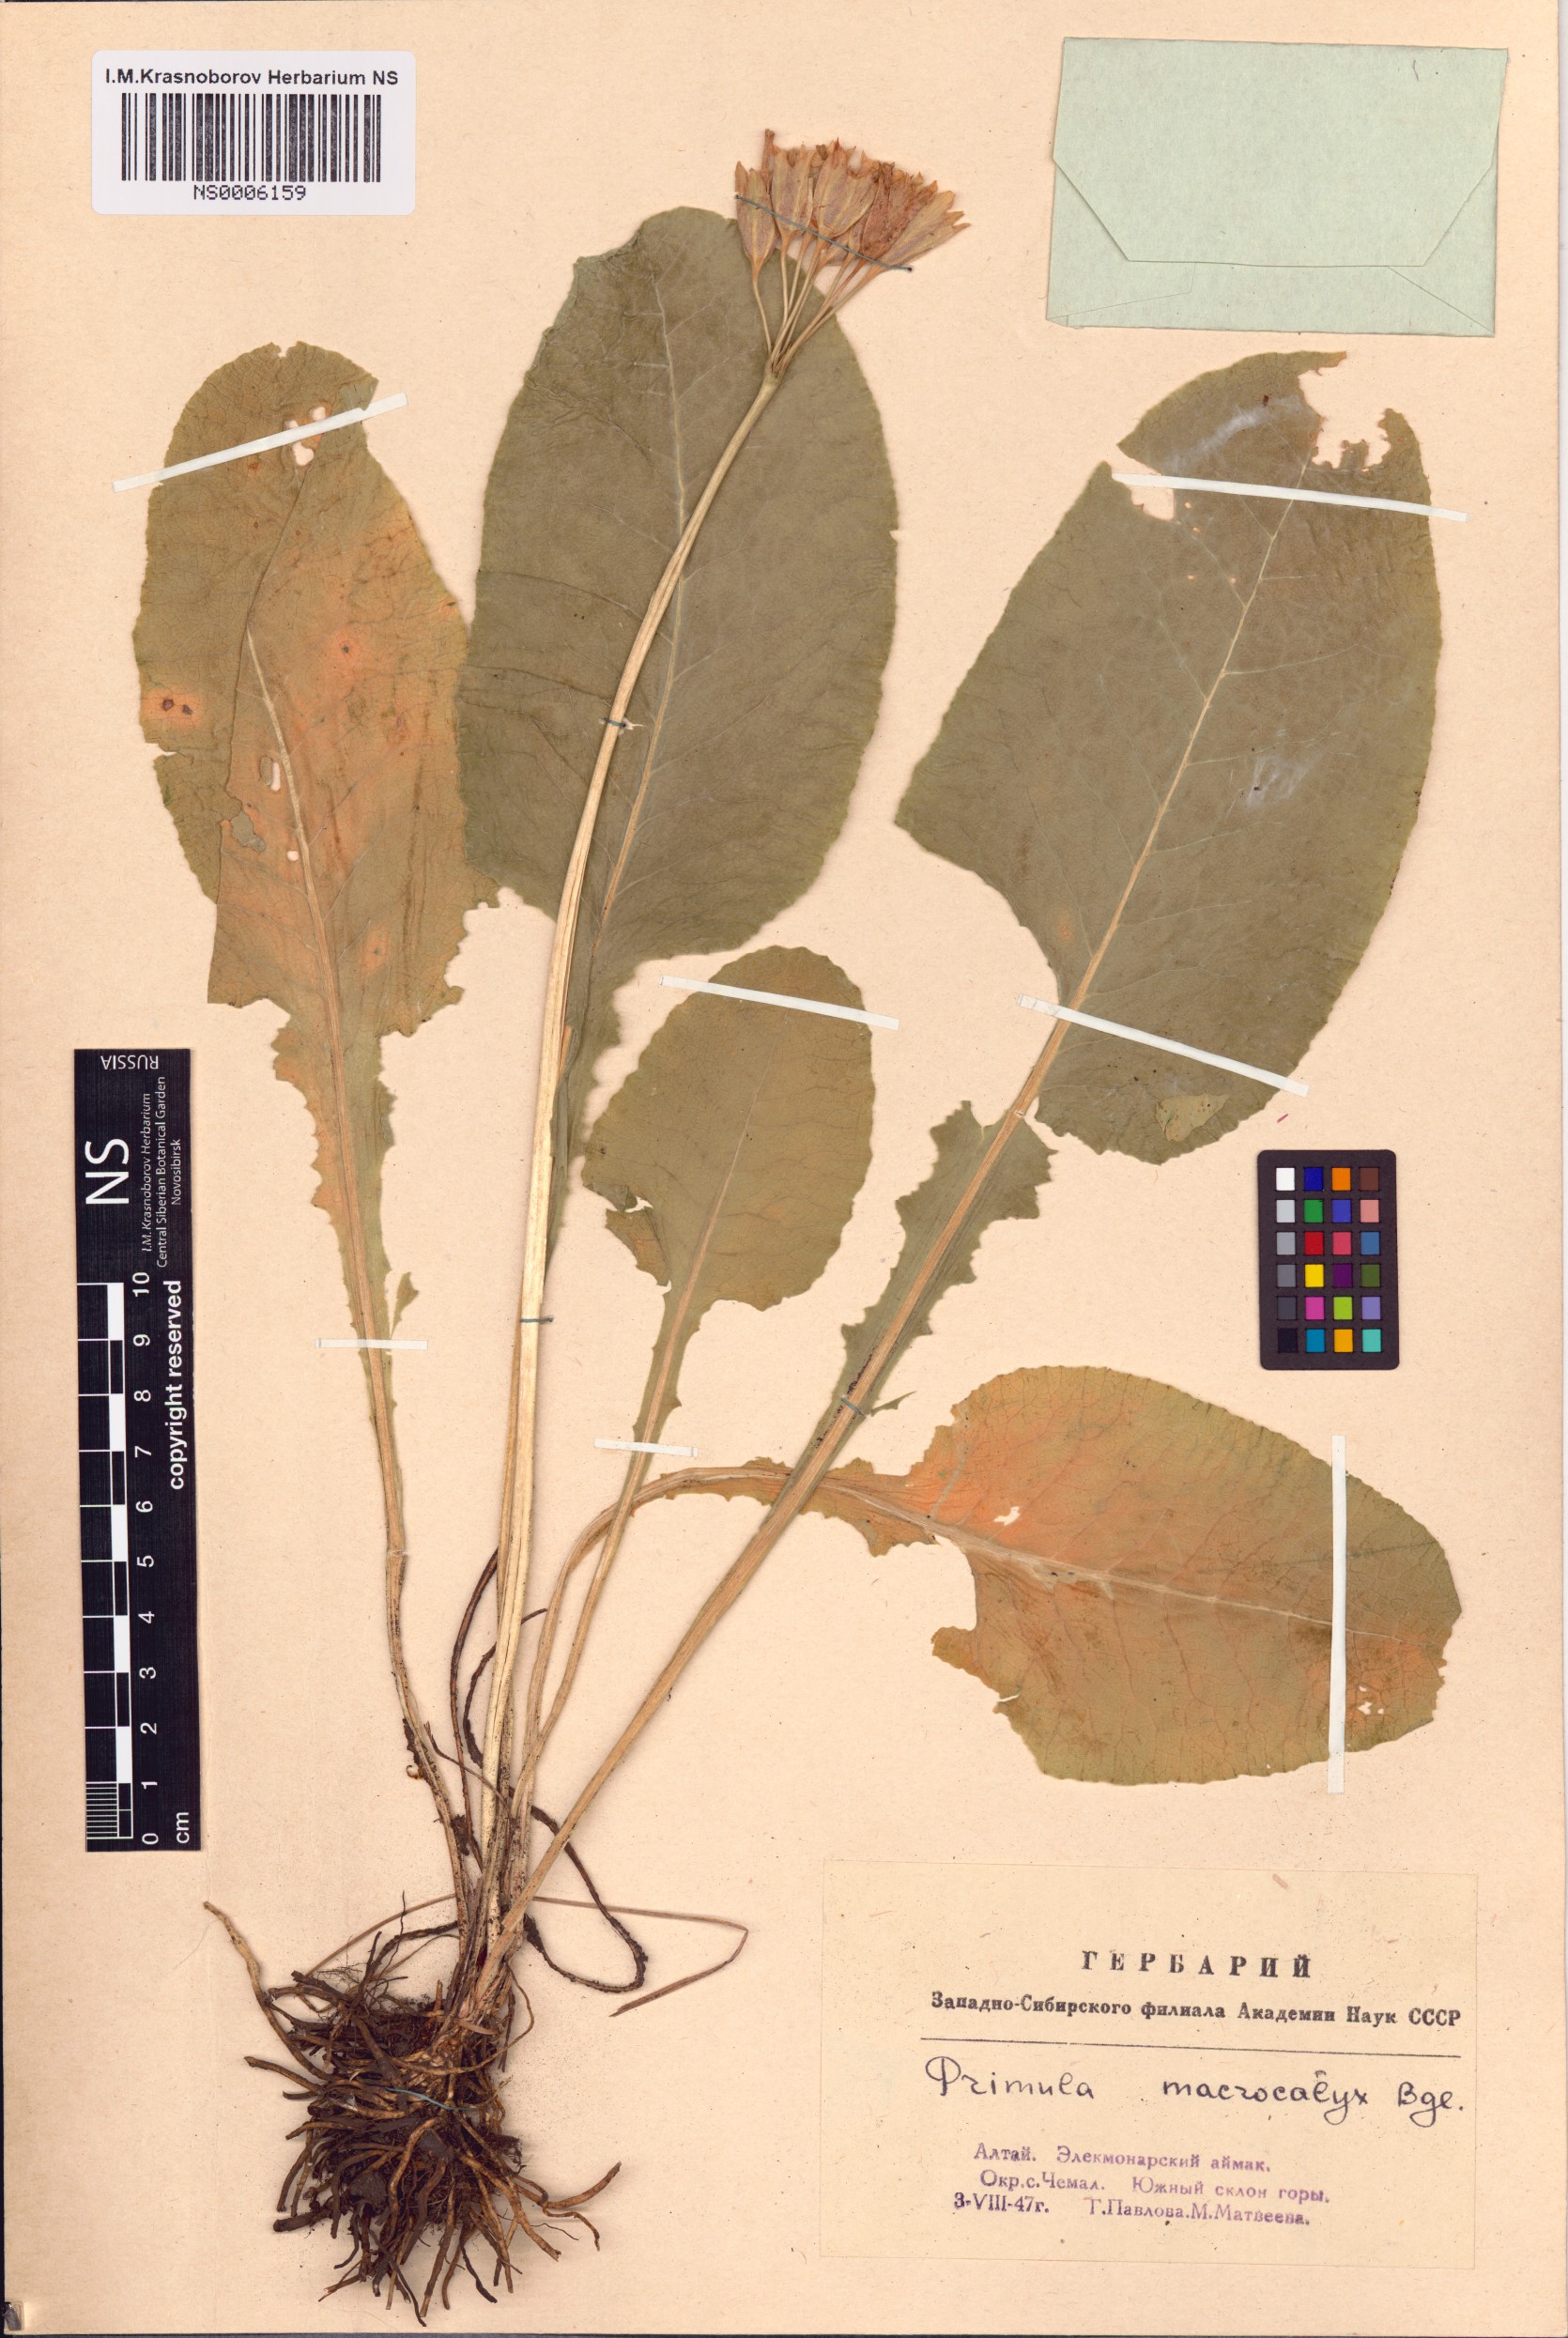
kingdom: Plantae
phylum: Tracheophyta
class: Magnoliopsida
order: Ericales
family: Primulaceae
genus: Primula
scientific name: Primula veris
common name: Cowslip
